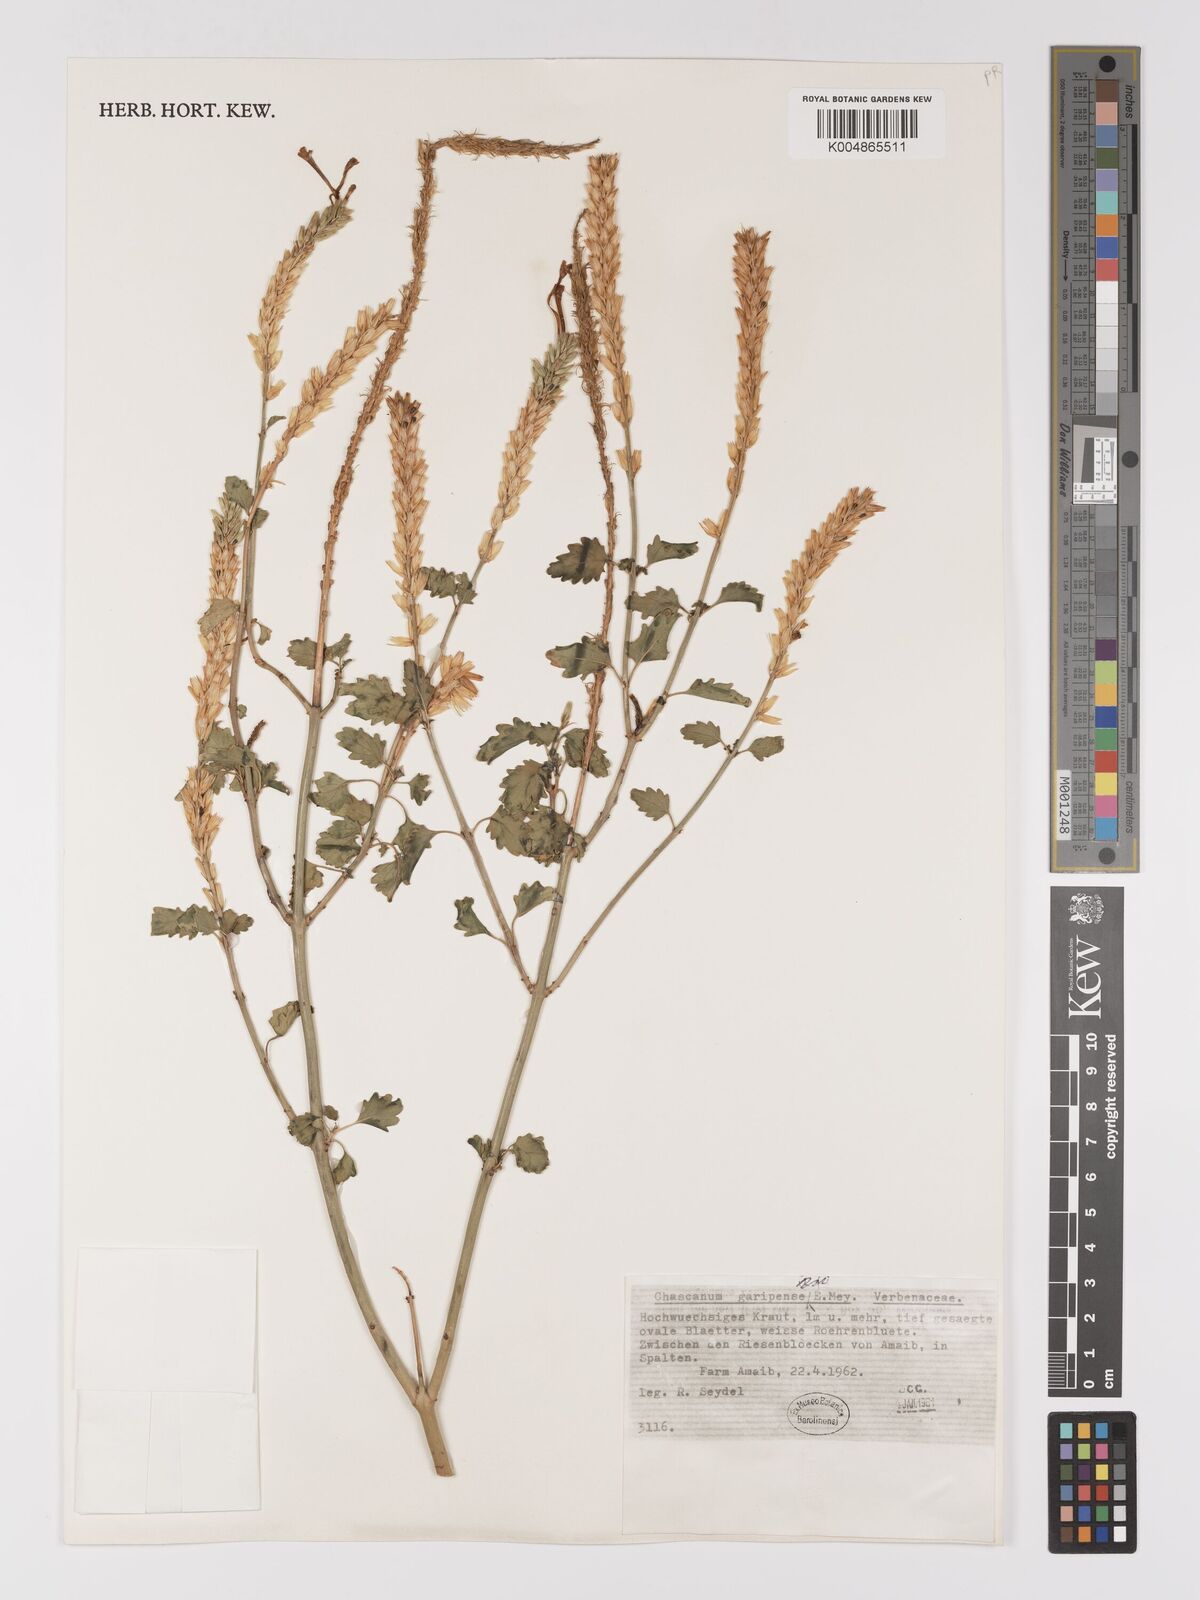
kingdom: Plantae
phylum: Tracheophyta
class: Magnoliopsida
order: Lamiales
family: Verbenaceae
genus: Chascanum
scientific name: Chascanum garipense
